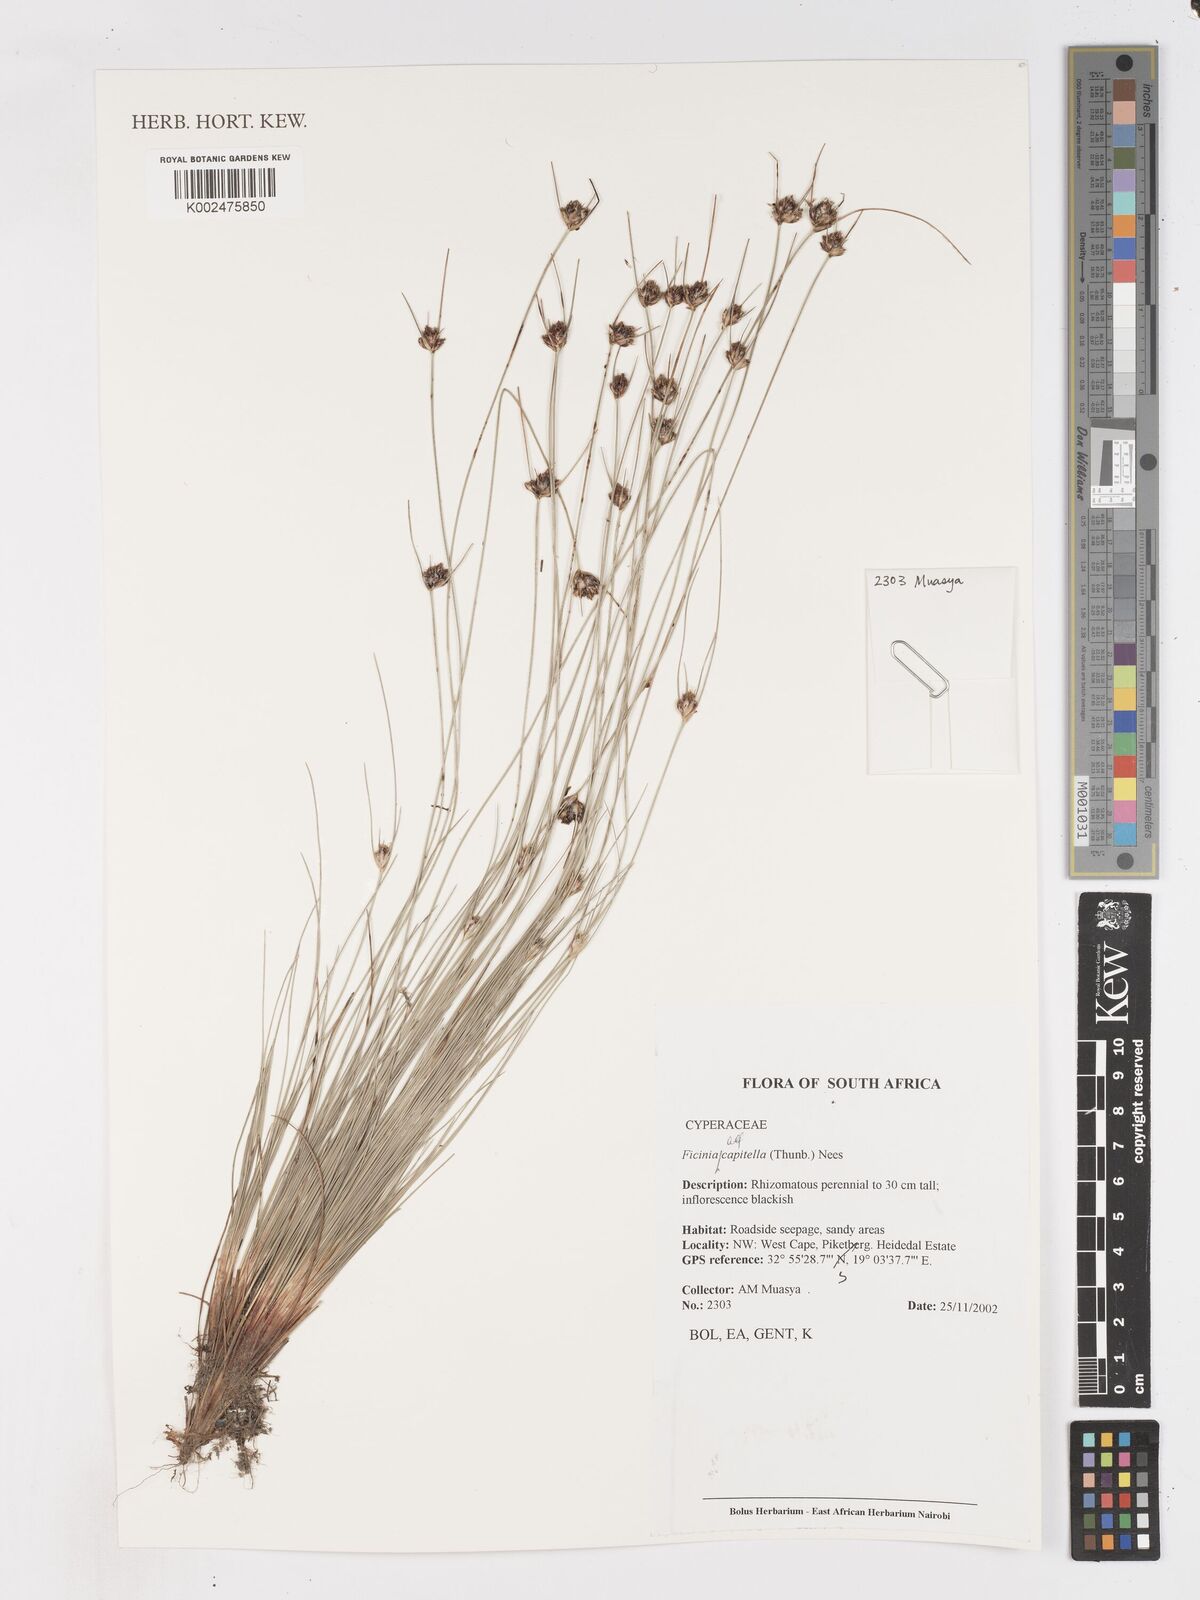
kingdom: Plantae
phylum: Tracheophyta
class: Liliopsida
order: Poales
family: Cyperaceae
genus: Ficinia
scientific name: Ficinia capitella
